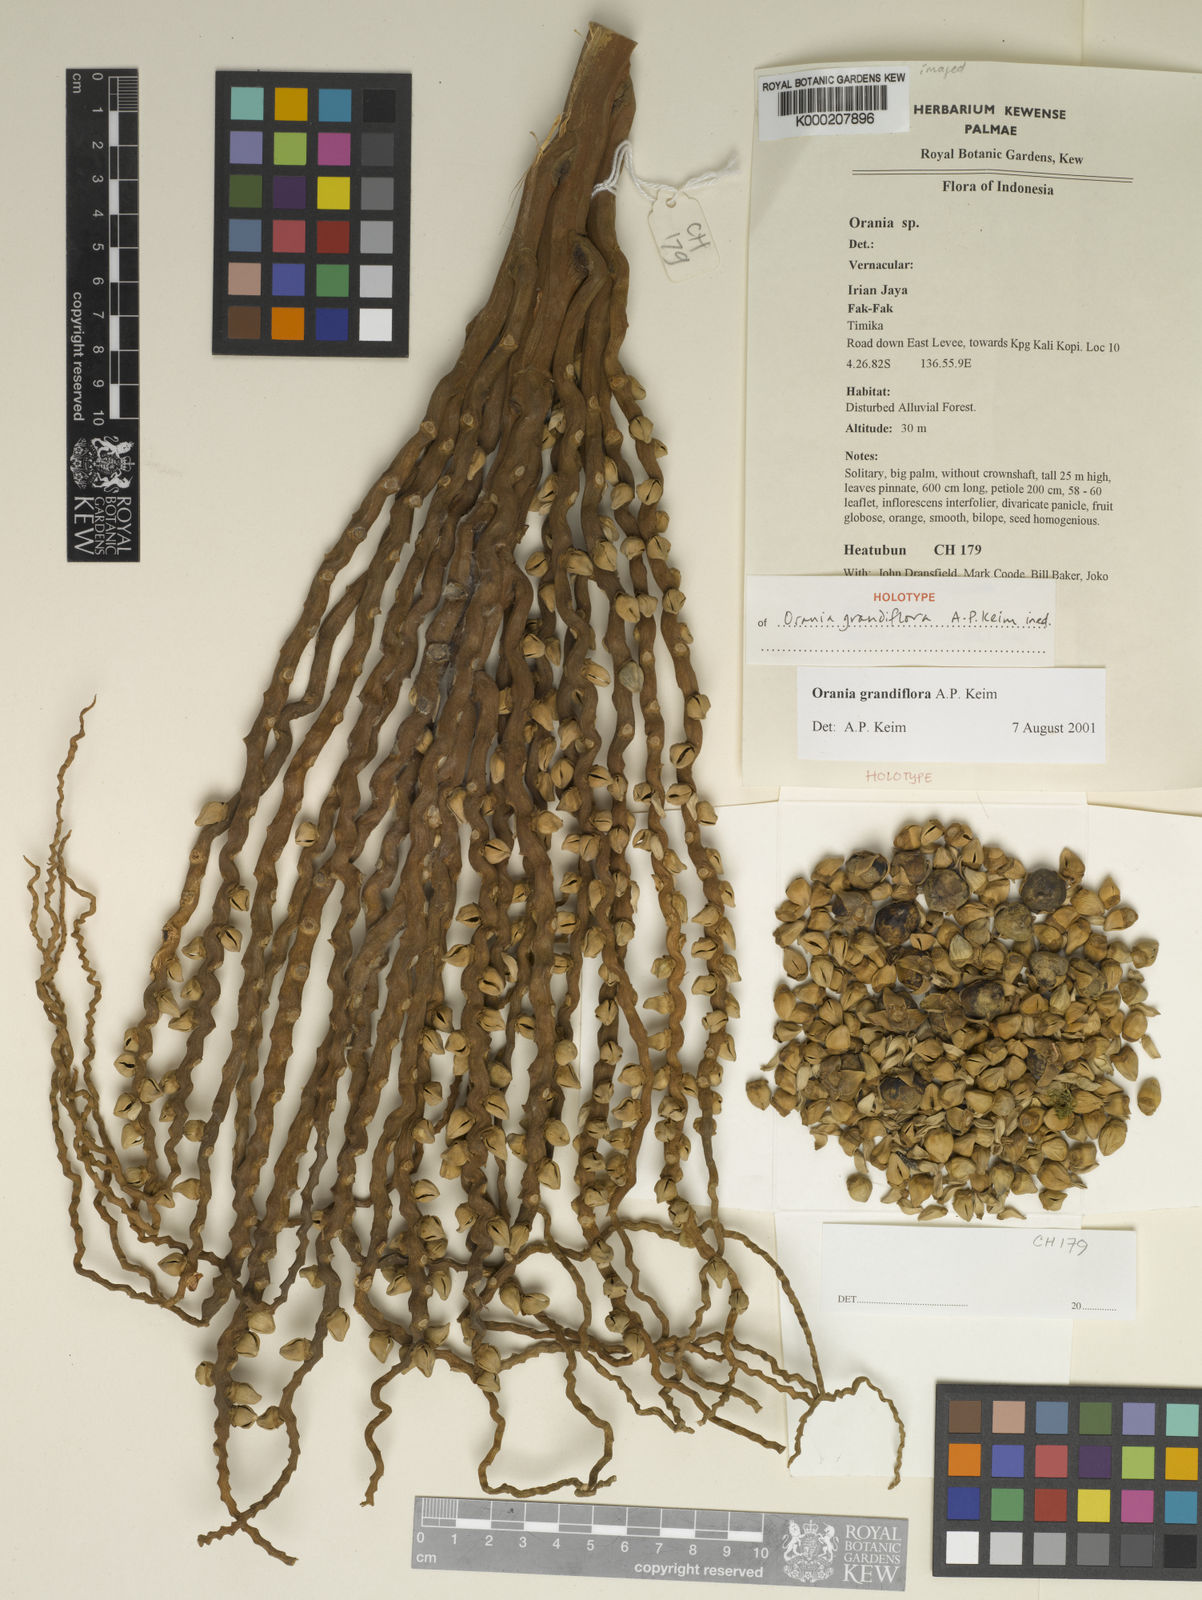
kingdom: Plantae
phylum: Tracheophyta
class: Liliopsida
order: Arecales
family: Arecaceae
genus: Orania
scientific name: Orania grandiflora
